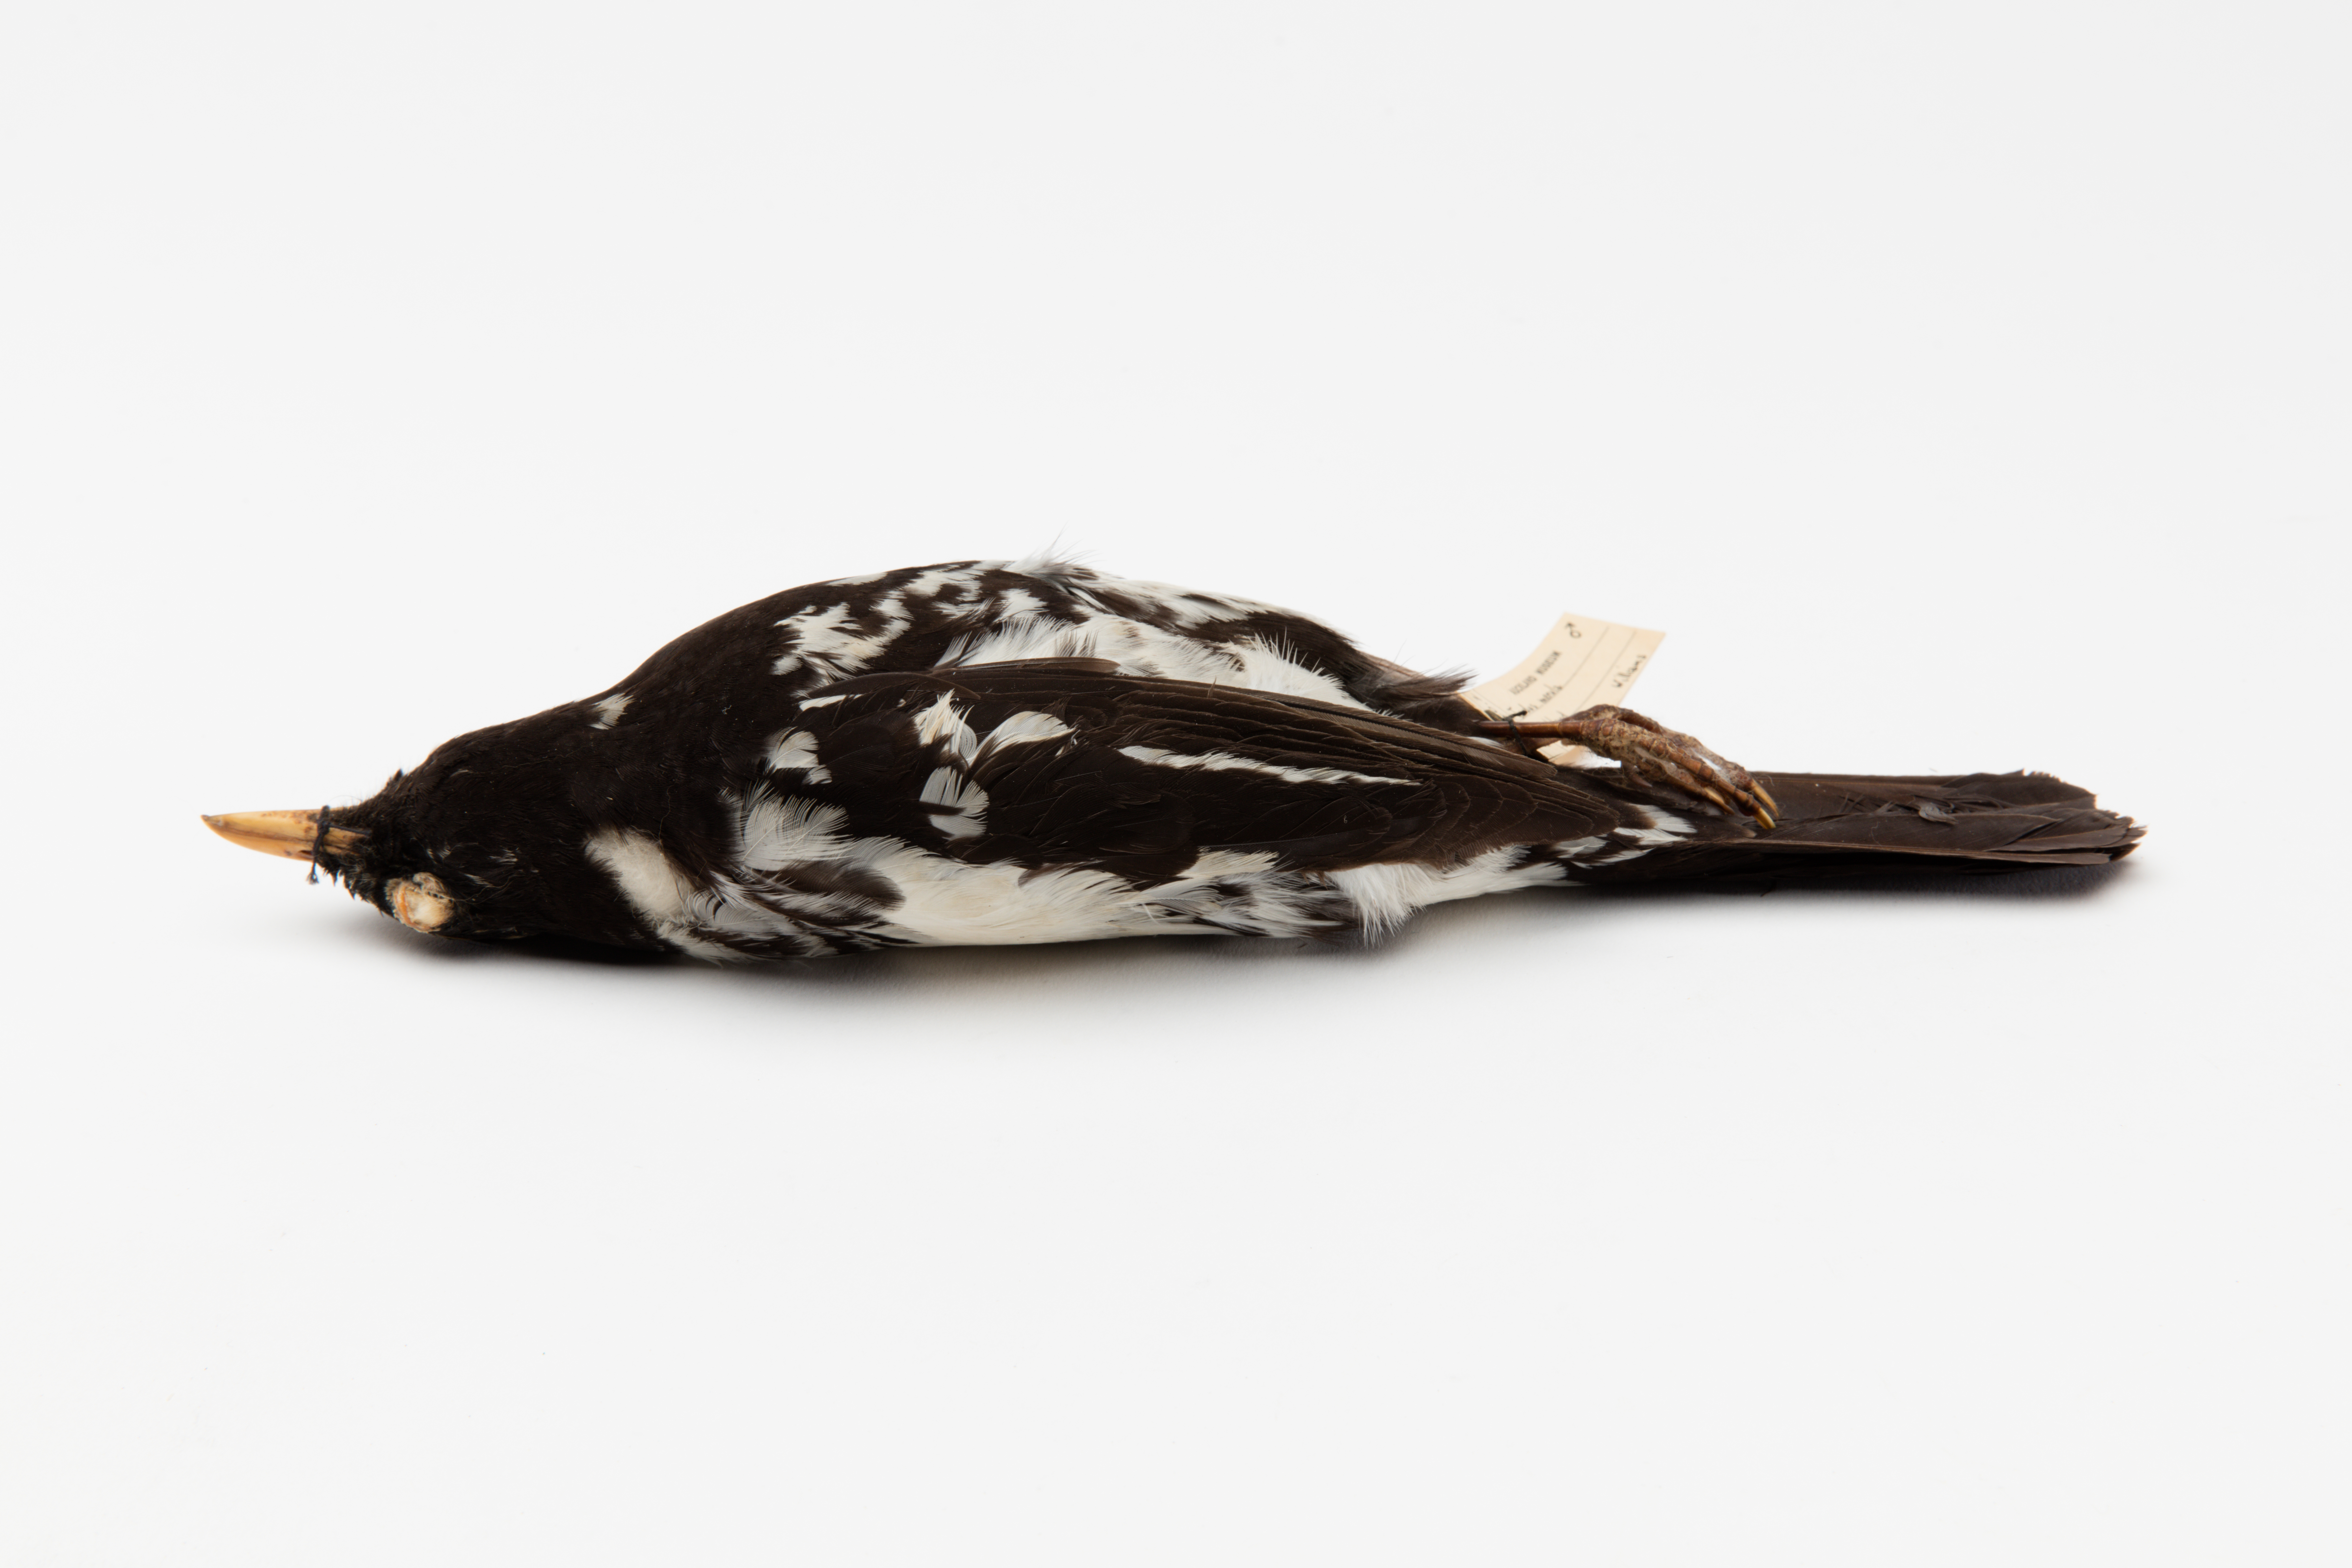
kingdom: Animalia
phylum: Chordata
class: Aves
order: Passeriformes
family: Turdidae
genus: Turdus
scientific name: Turdus merula
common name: Common blackbird
